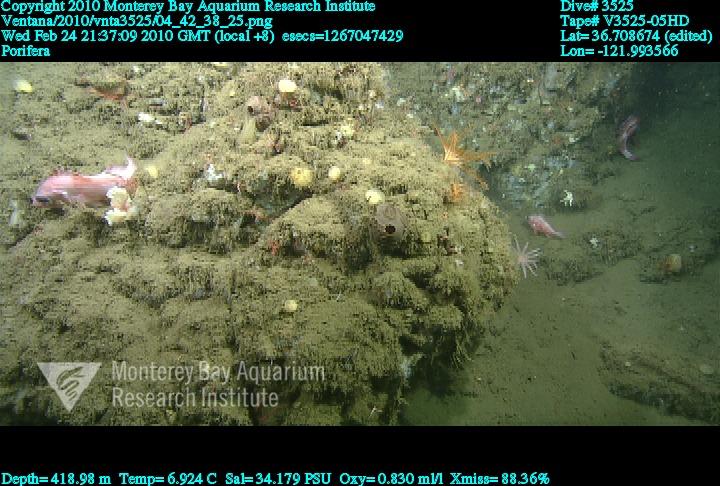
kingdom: Animalia
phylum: Porifera
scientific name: Porifera
